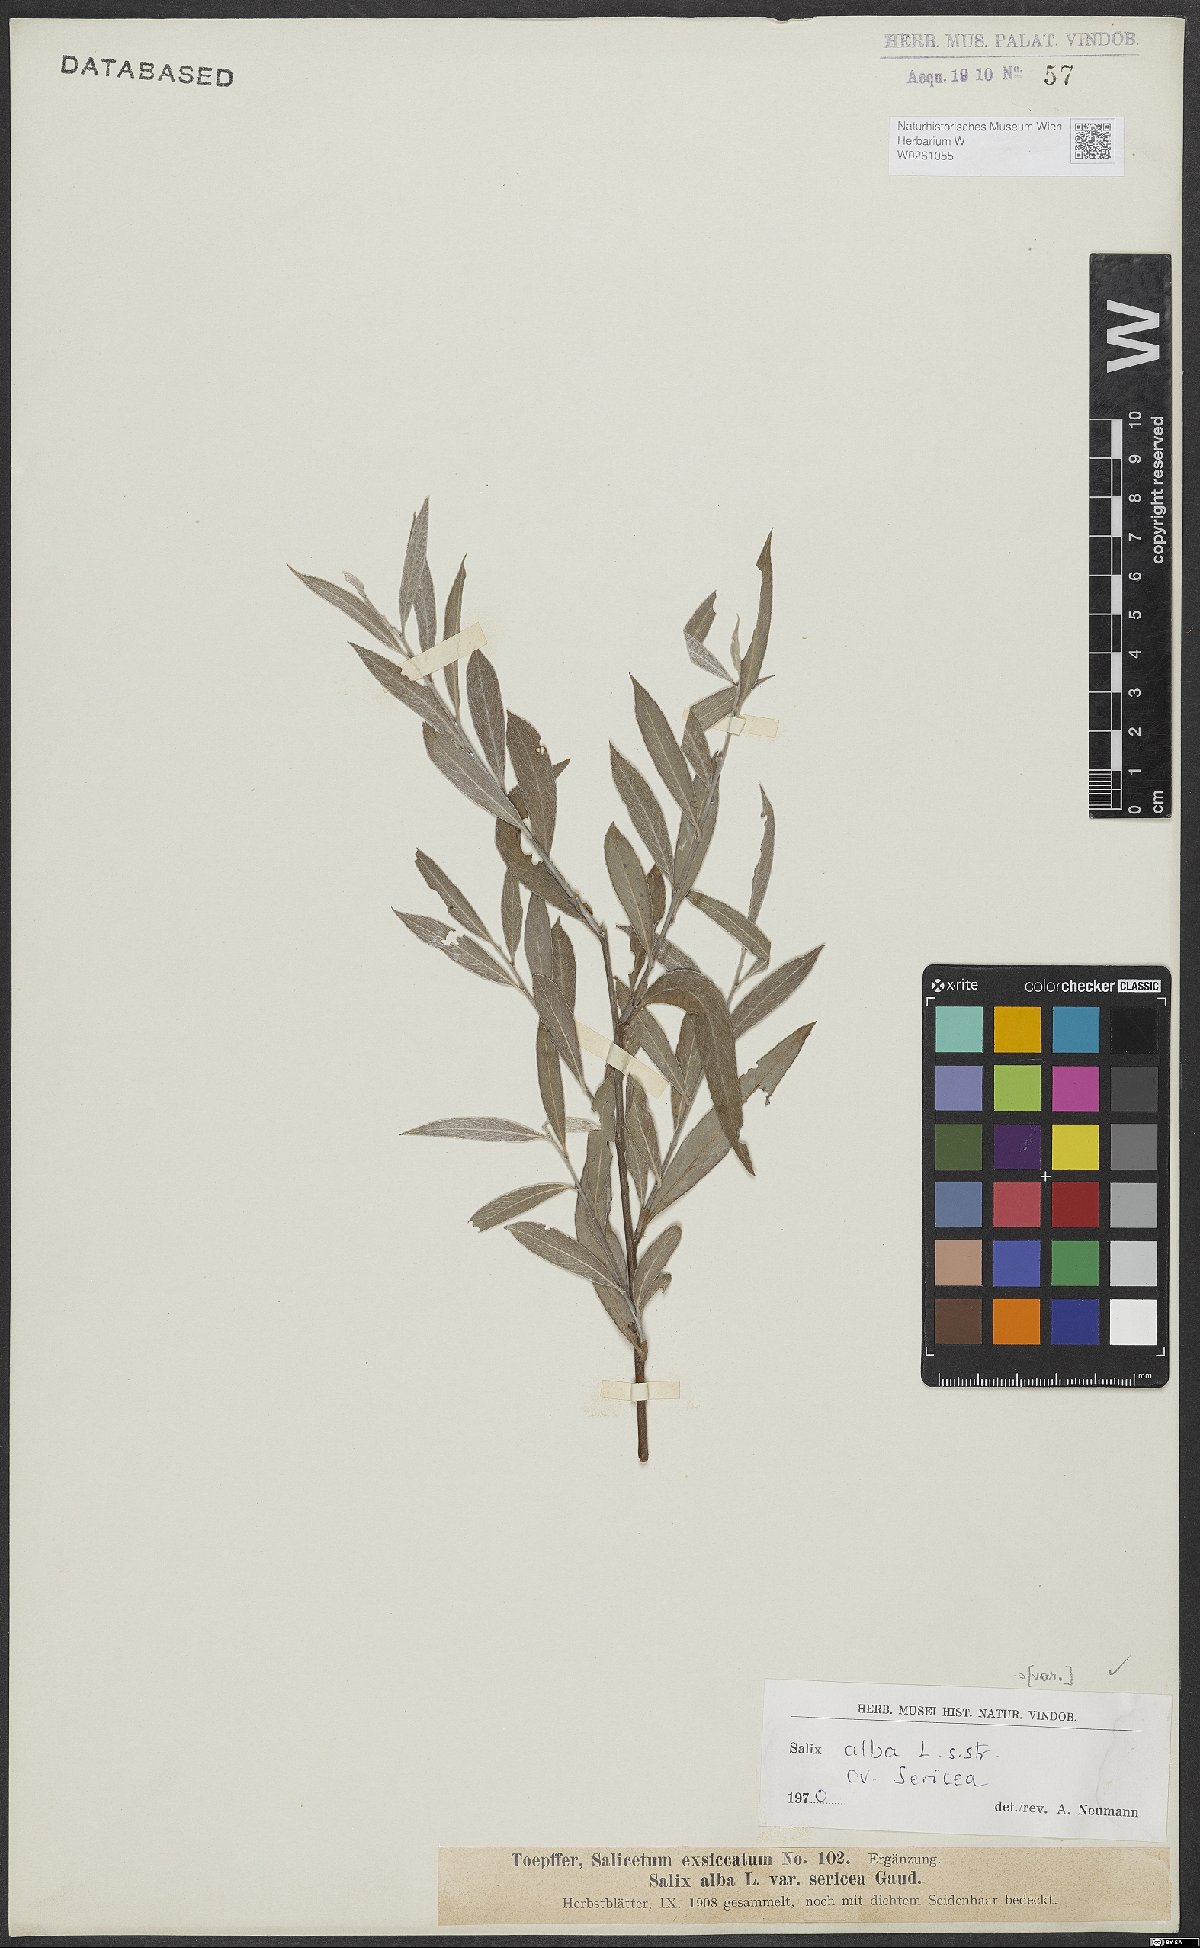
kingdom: Plantae
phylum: Tracheophyta
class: Magnoliopsida
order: Malpighiales
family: Salicaceae
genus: Salix
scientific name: Salix alba
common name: White willow
